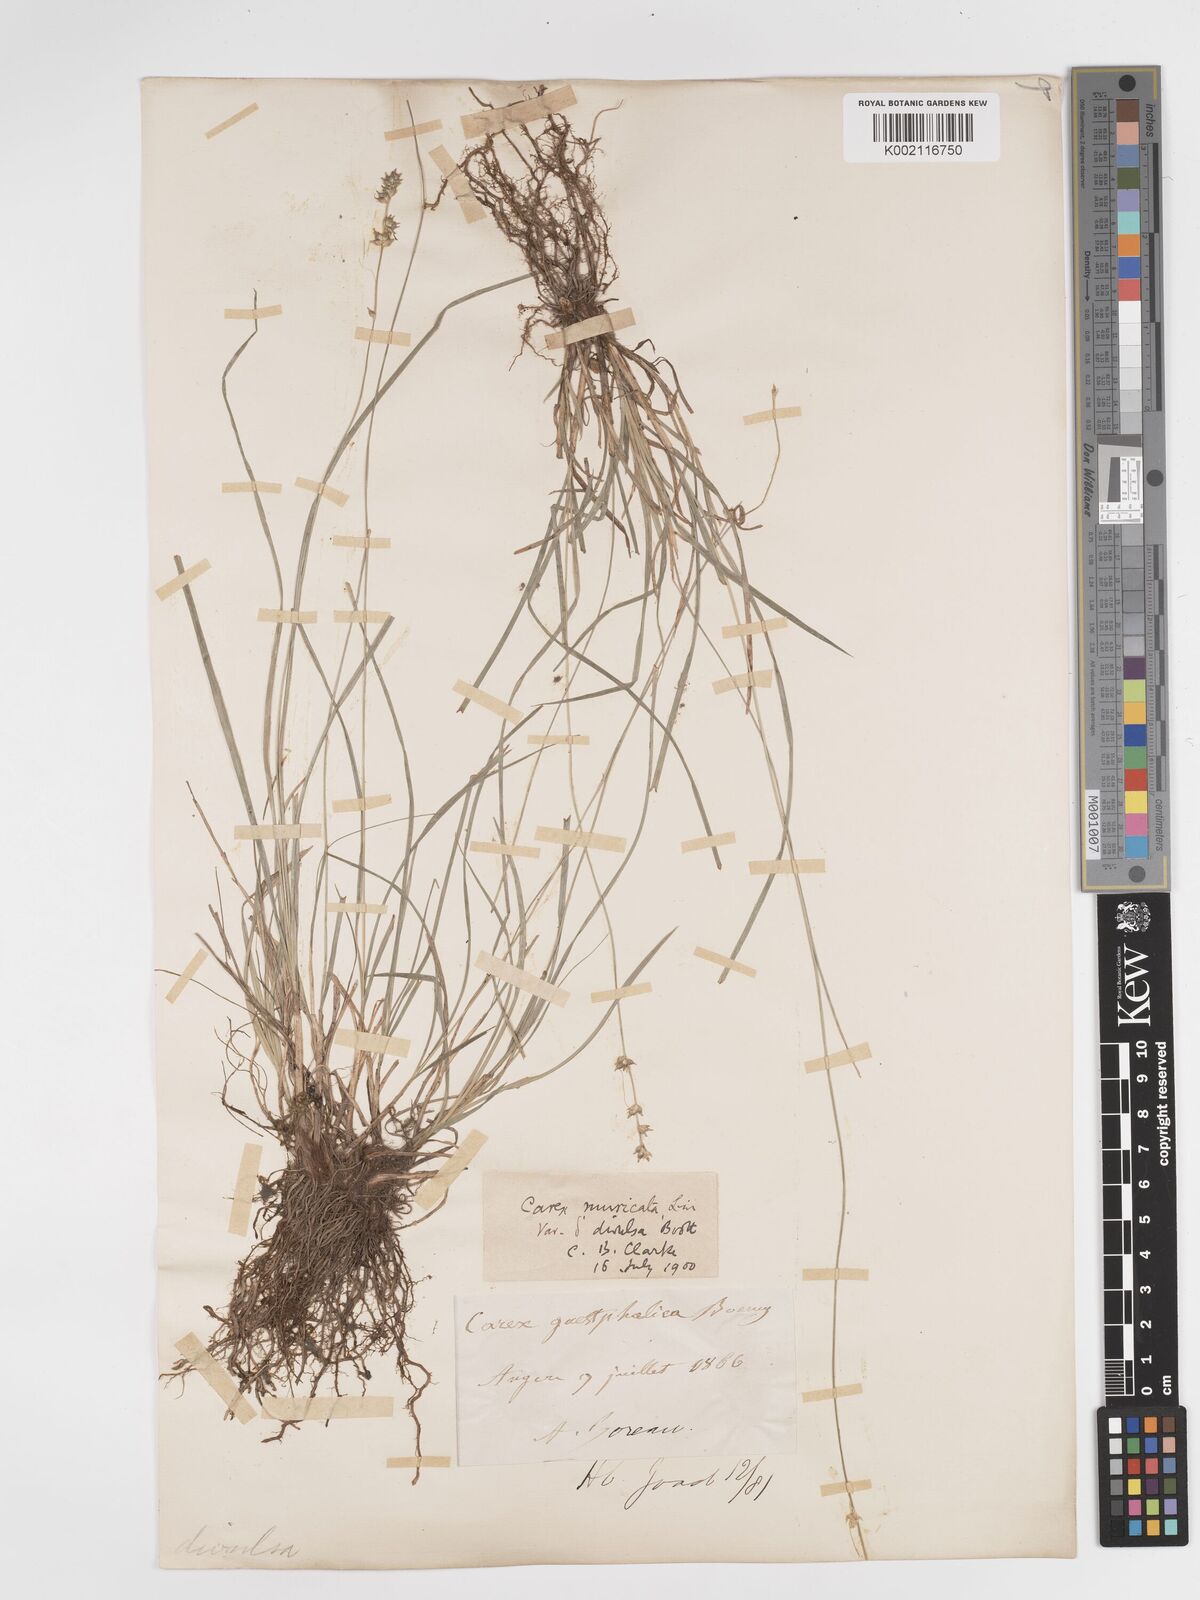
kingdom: Plantae
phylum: Tracheophyta
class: Liliopsida
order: Poales
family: Cyperaceae
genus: Carex
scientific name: Carex divulsa
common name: Grassland sedge
